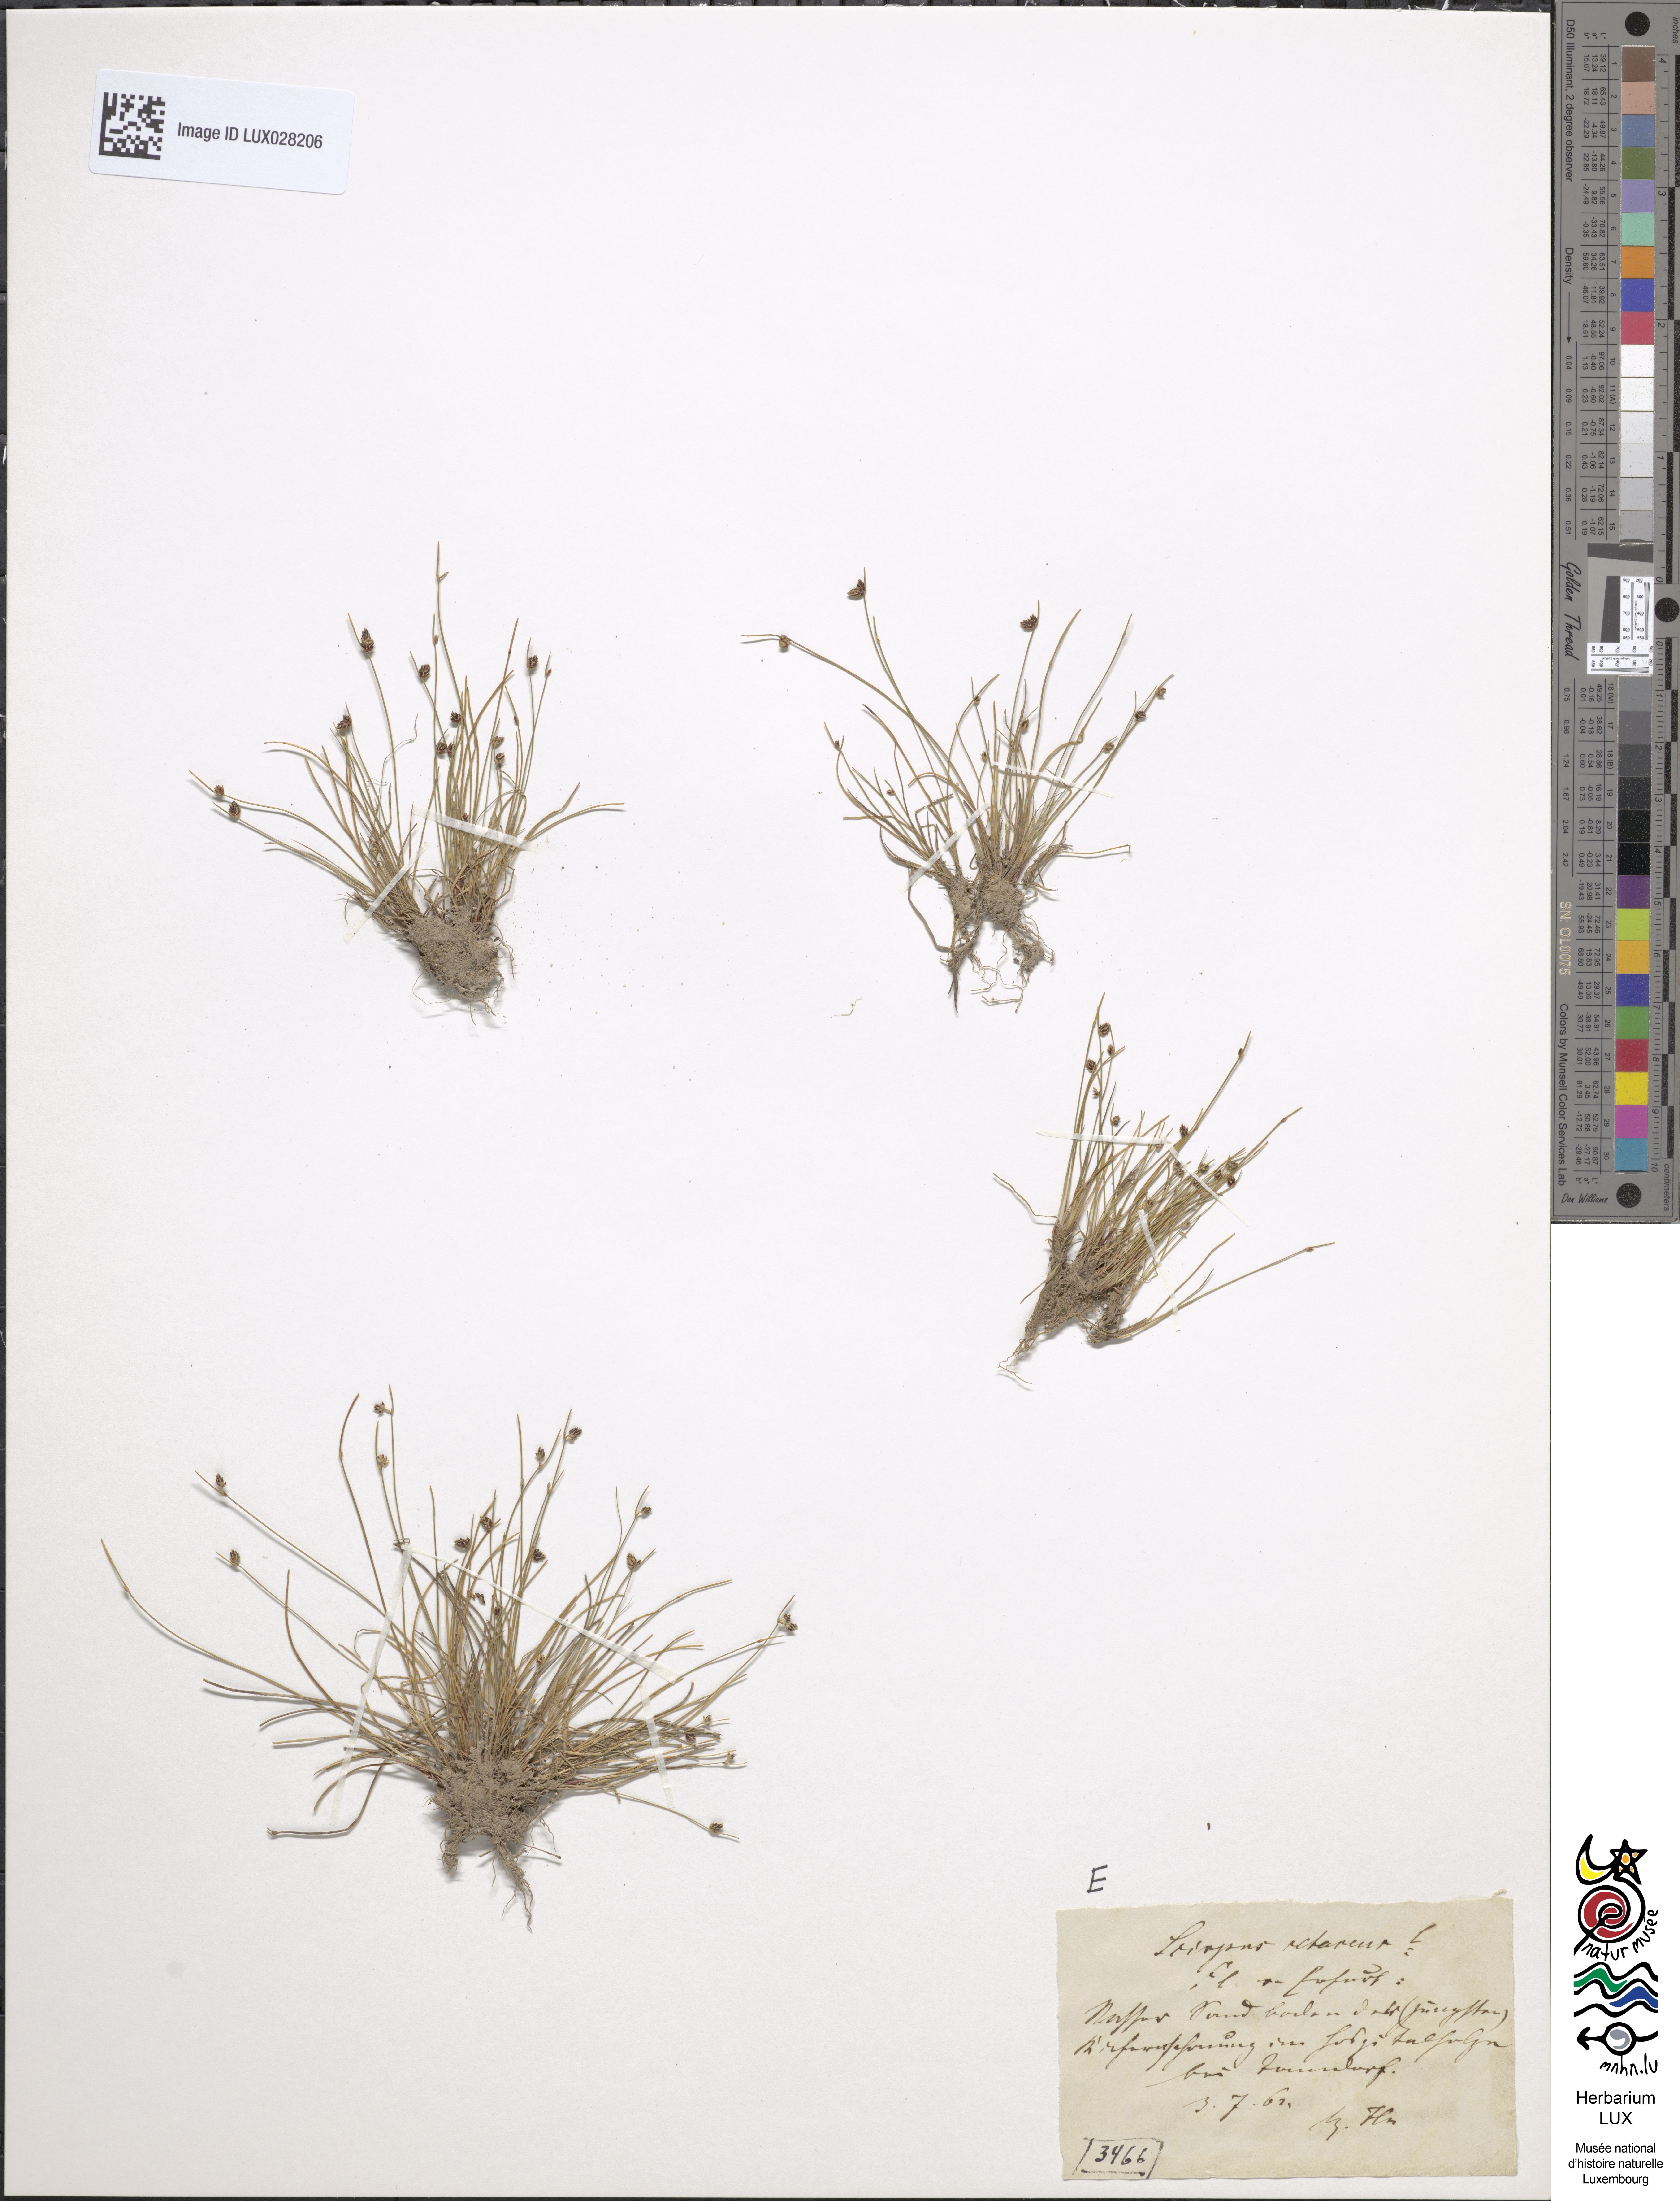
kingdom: Plantae
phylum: Tracheophyta
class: Liliopsida
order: Poales
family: Cyperaceae
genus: Isolepis
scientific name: Isolepis setacea
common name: Bristle club-rush
